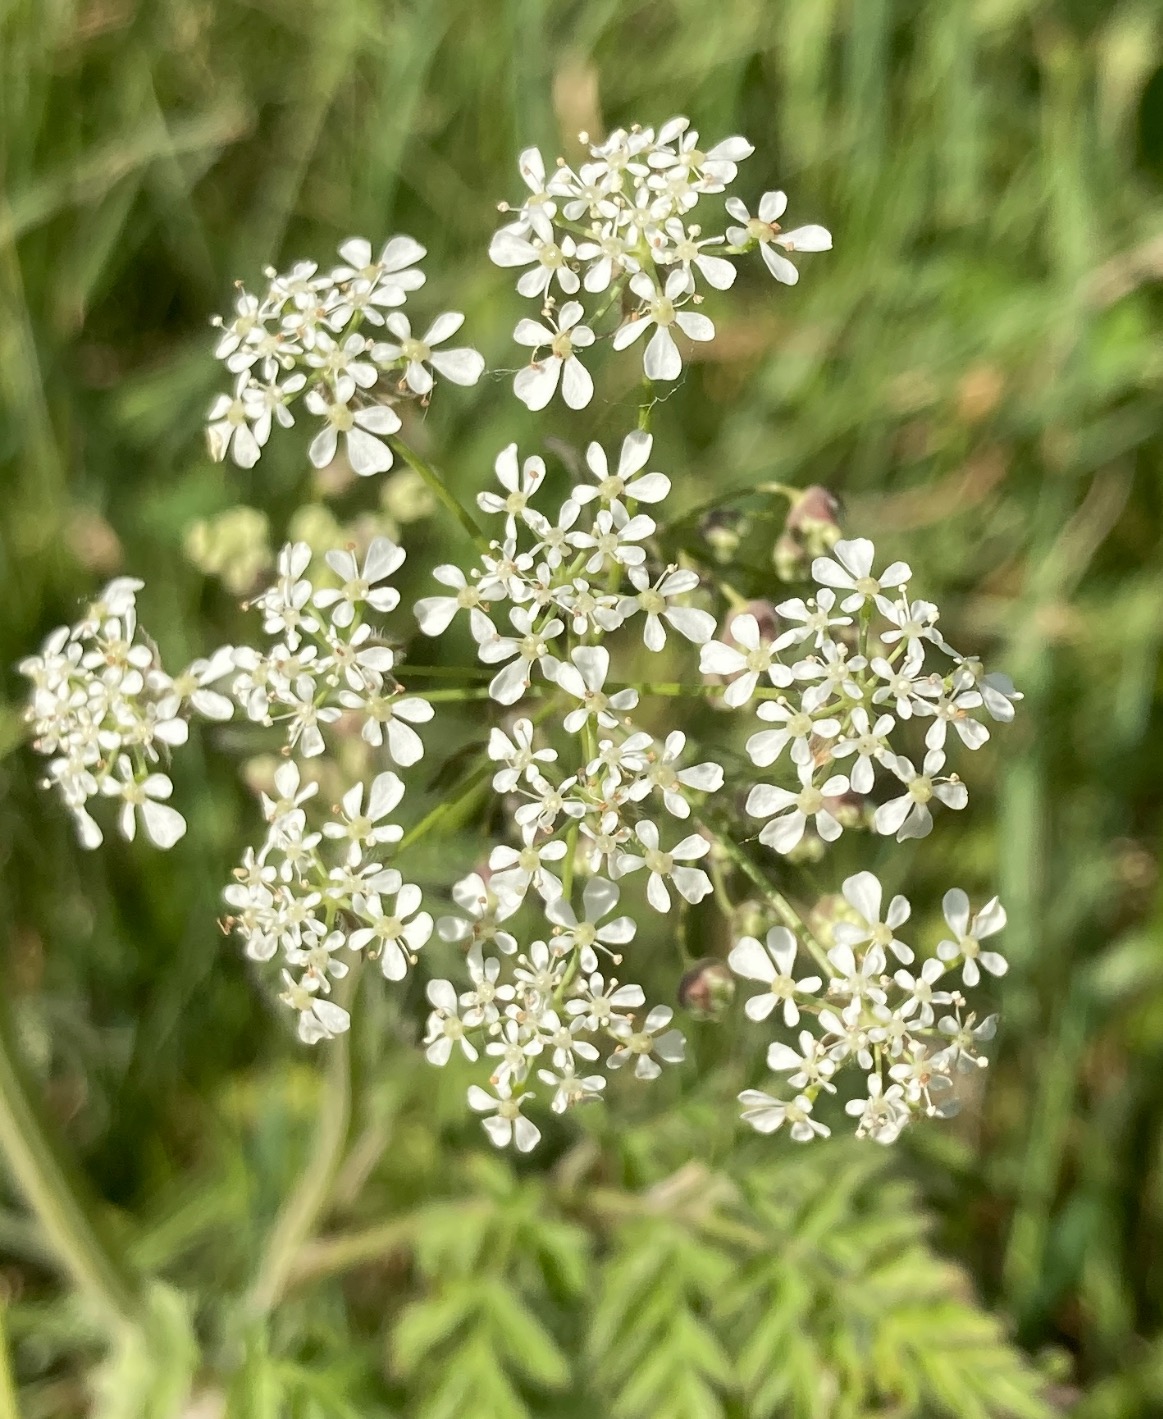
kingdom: Plantae
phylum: Tracheophyta
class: Magnoliopsida
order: Apiales
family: Apiaceae
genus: Anthriscus
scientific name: Anthriscus sylvestris
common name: Vild kørvel
